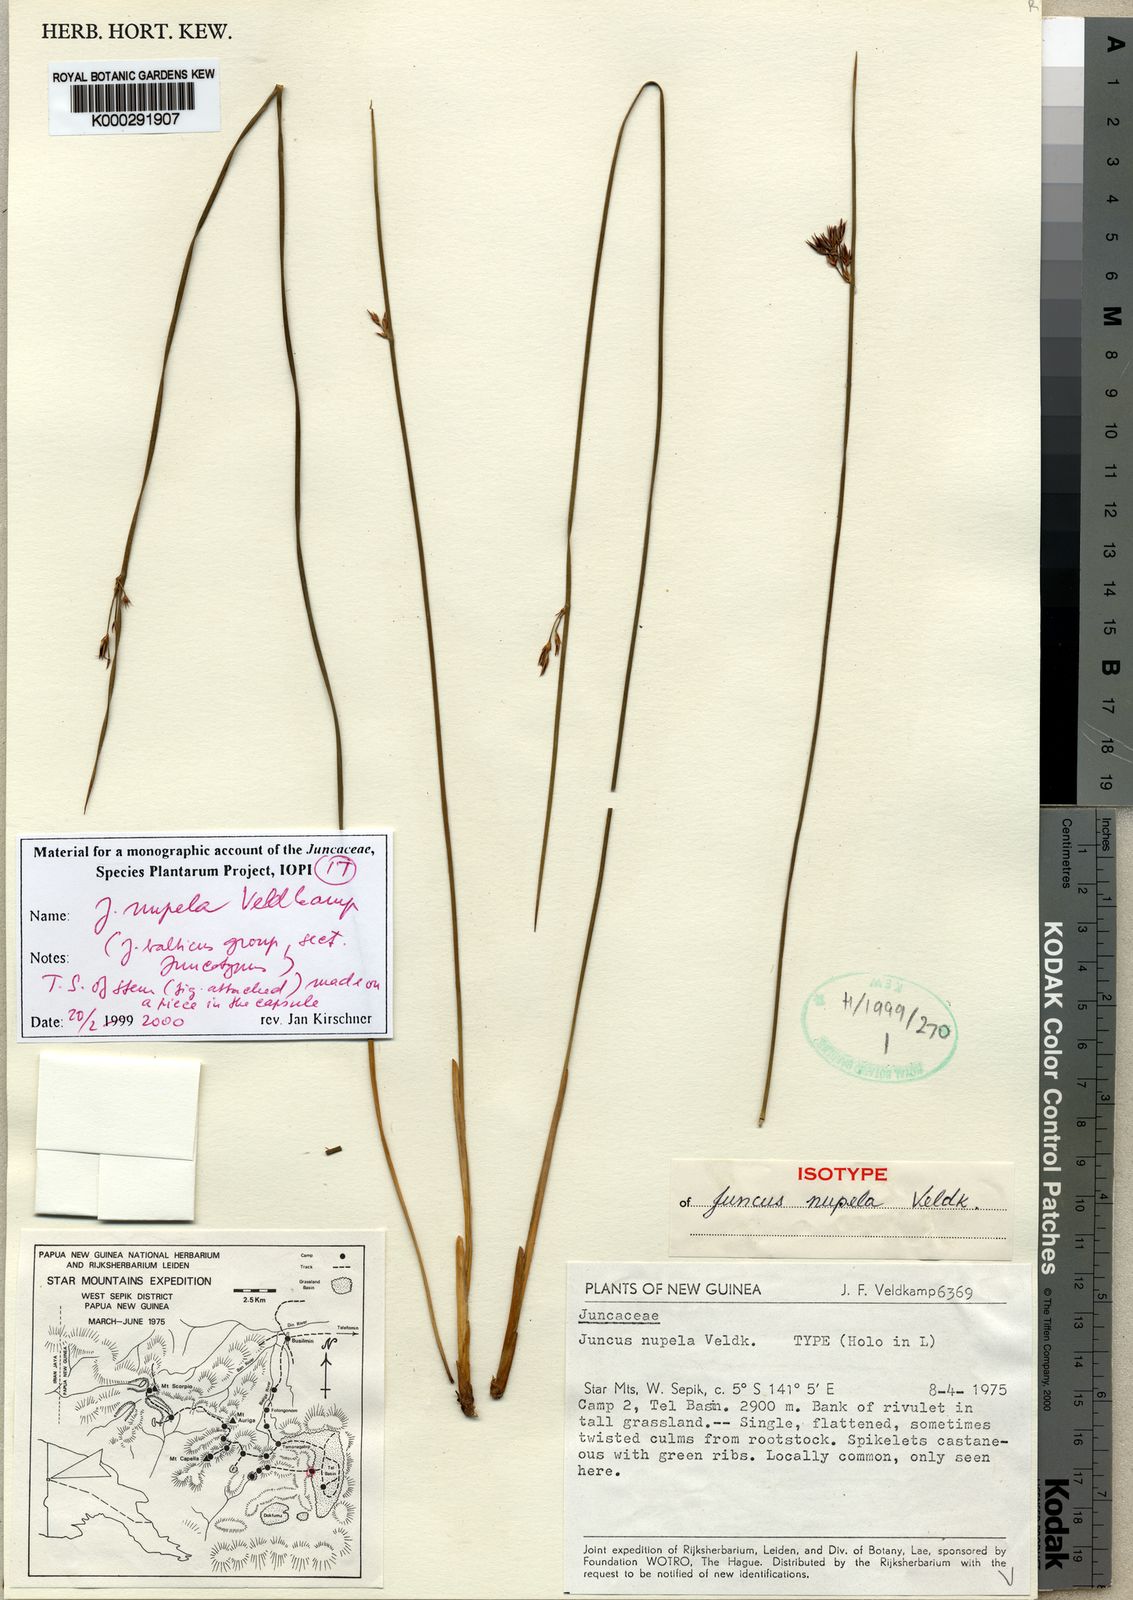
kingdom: Plantae
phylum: Tracheophyta
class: Liliopsida
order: Poales
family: Juncaceae
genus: Juncus
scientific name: Juncus nupela
